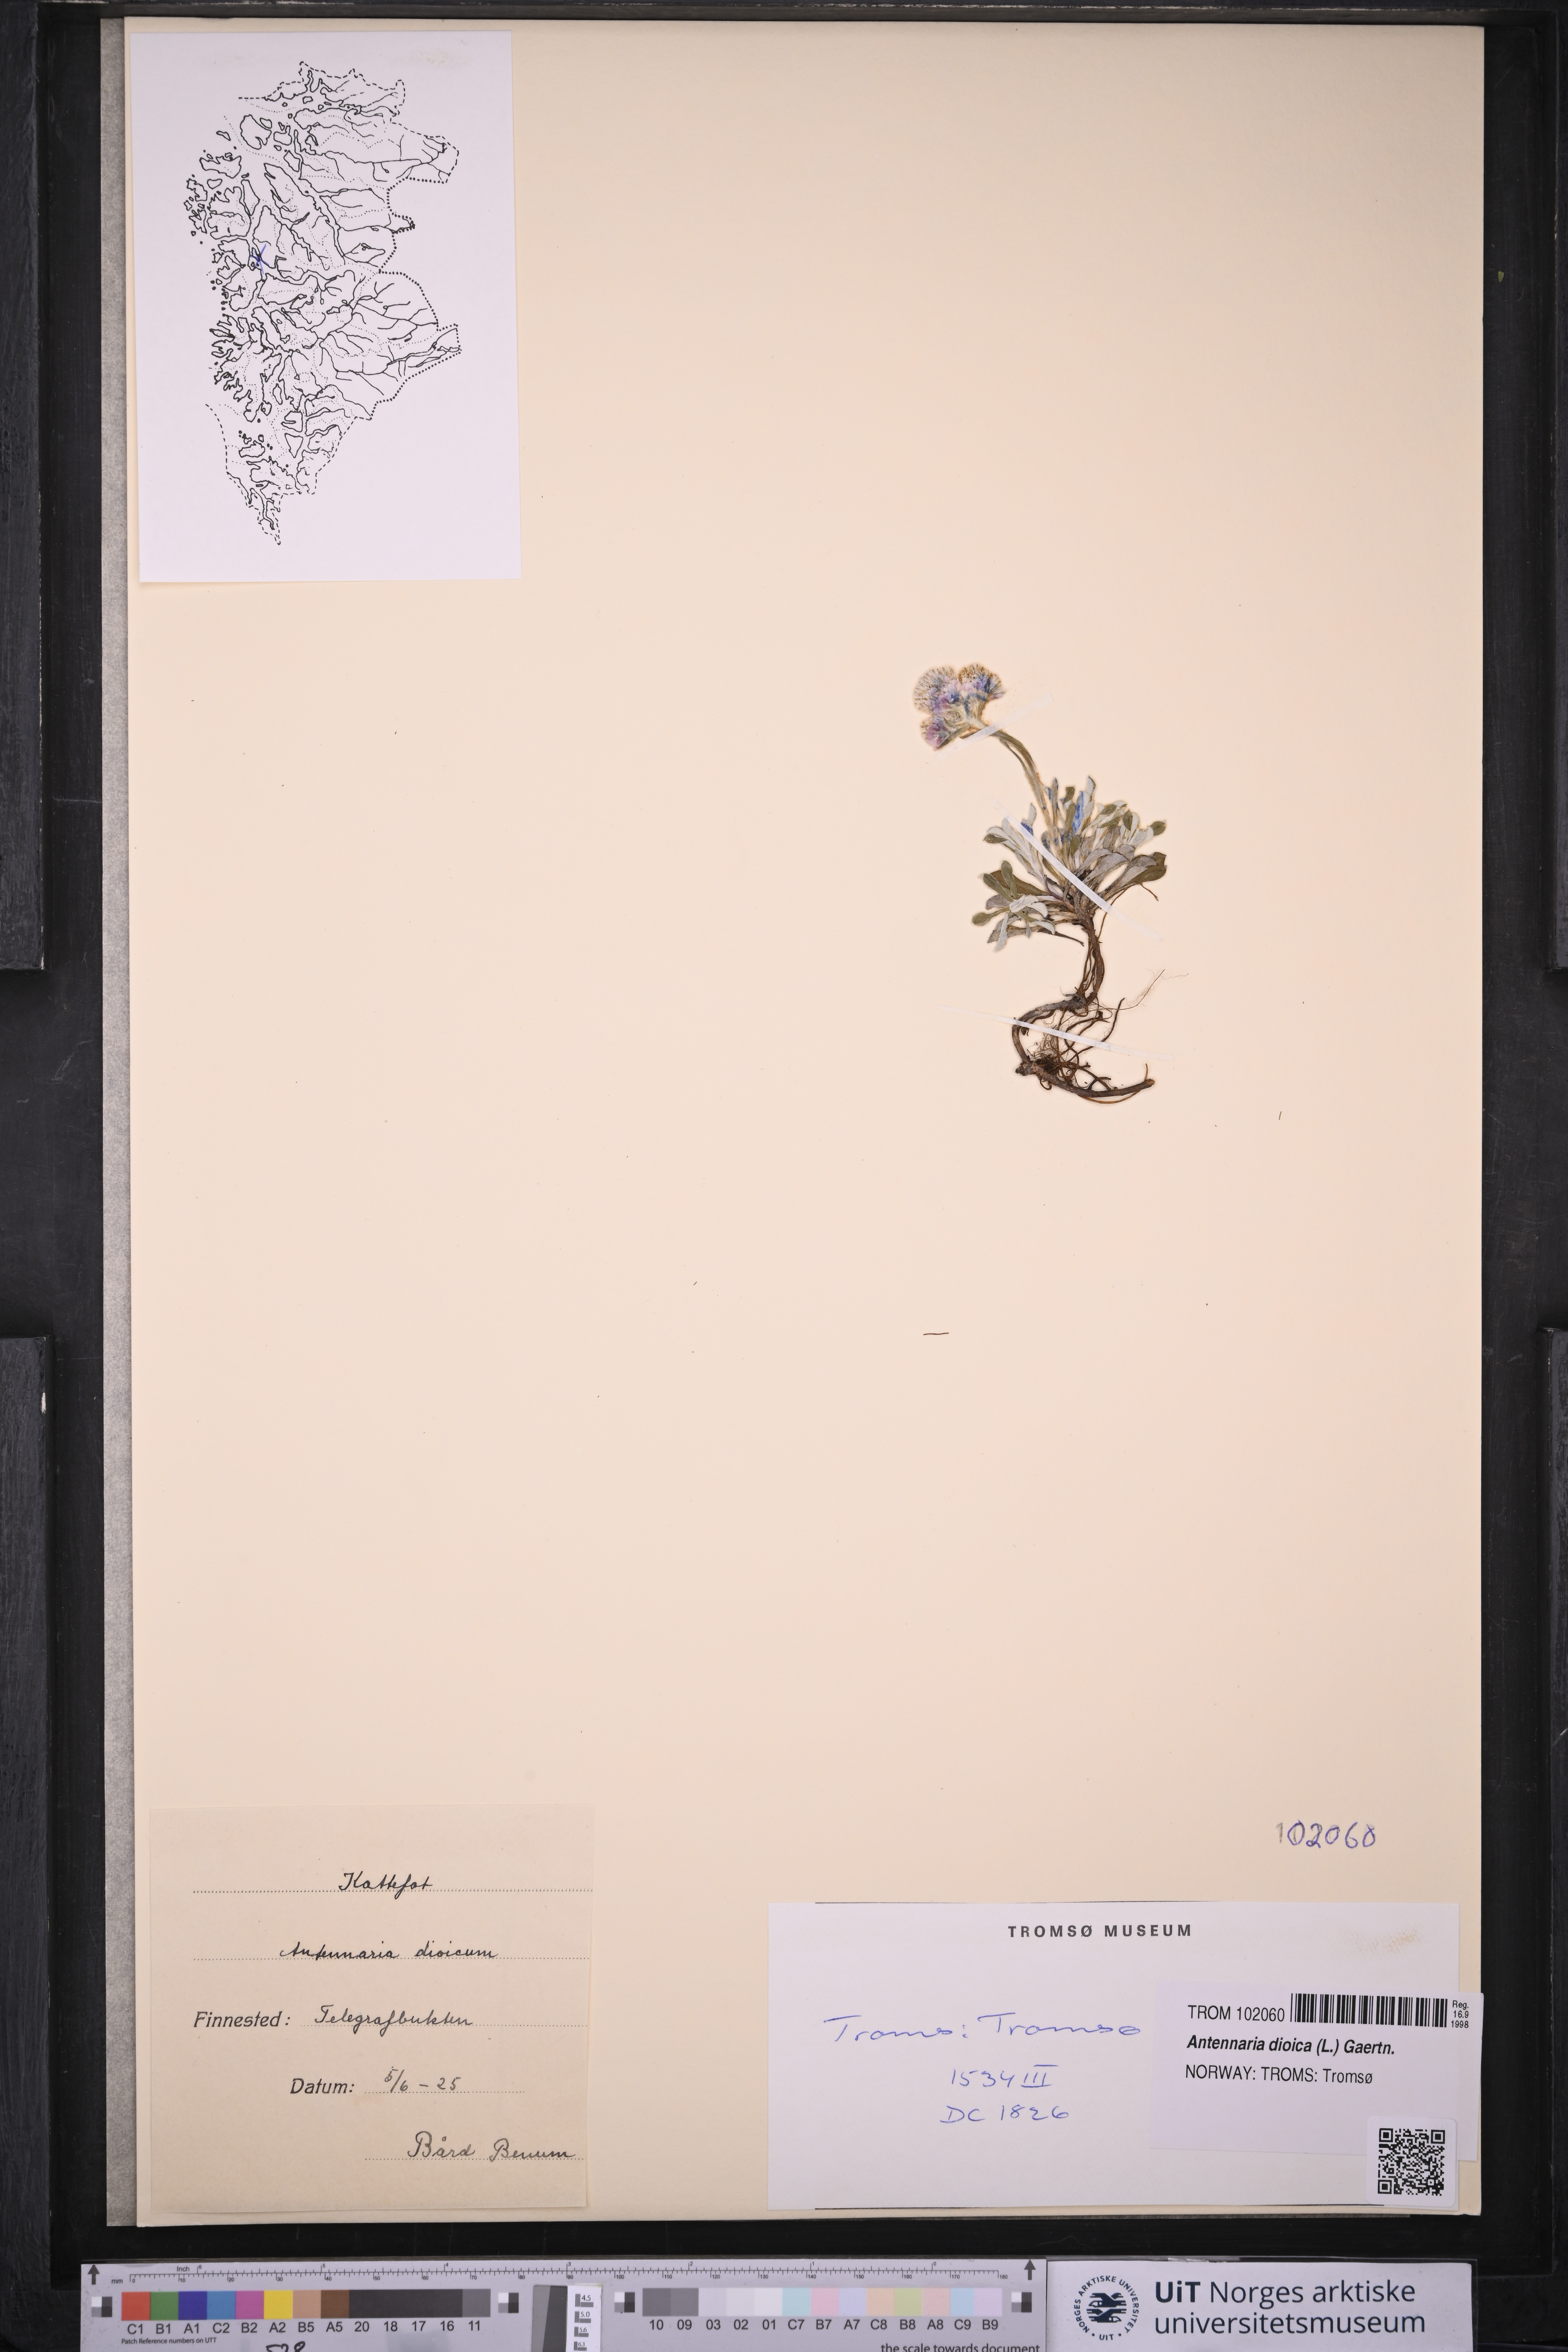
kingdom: Plantae
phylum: Tracheophyta
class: Magnoliopsida
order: Asterales
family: Asteraceae
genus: Antennaria
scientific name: Antennaria dioica
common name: Mountain everlasting
